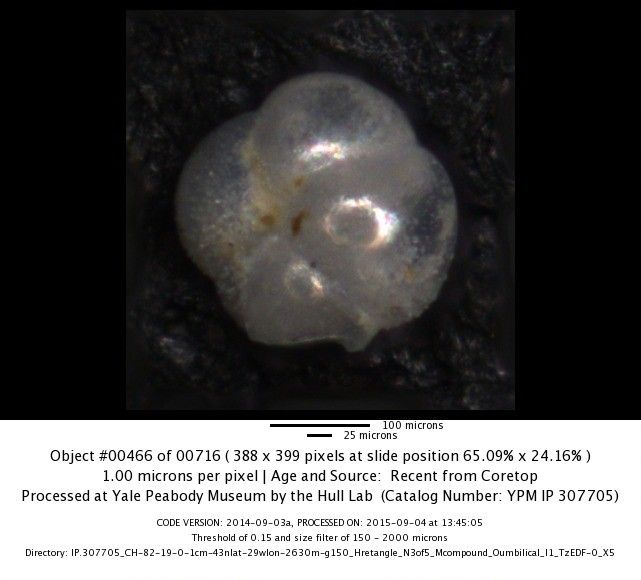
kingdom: Chromista
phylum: Foraminifera
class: Globothalamea
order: Rotaliida
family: Globorotaliidae
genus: Globorotalia
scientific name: Globorotalia scitula
